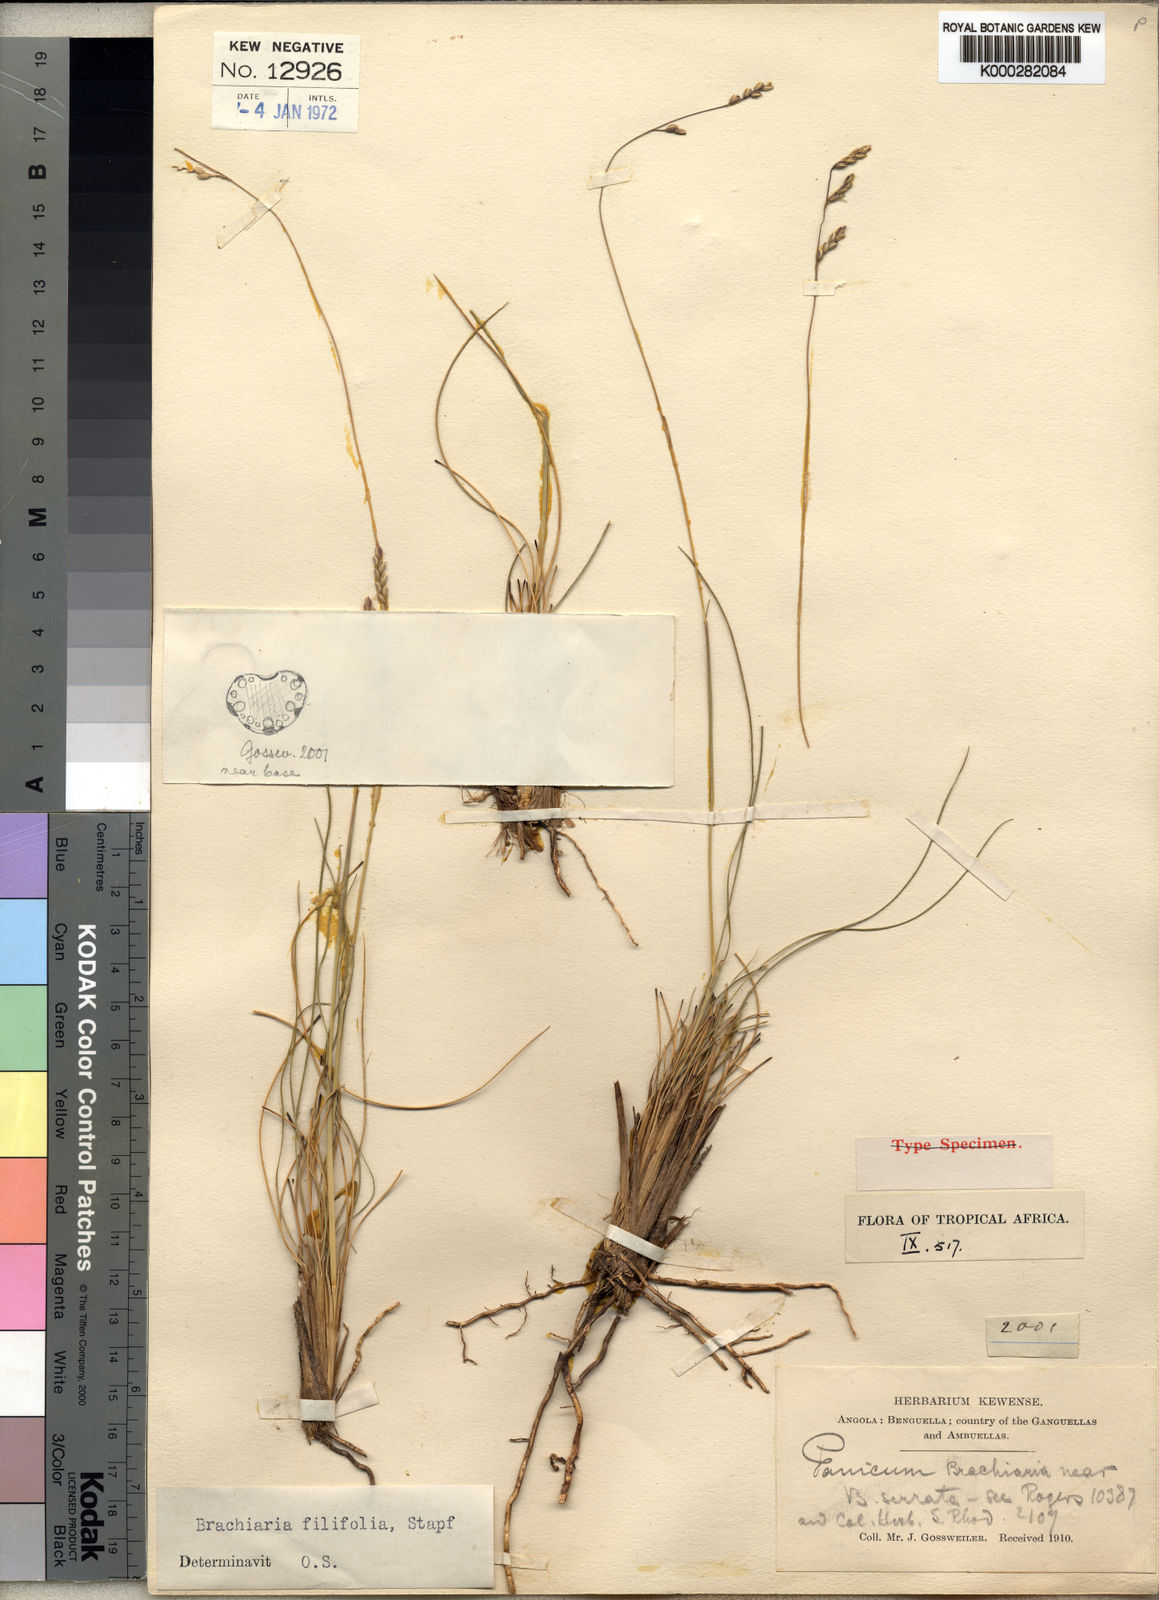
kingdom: Plantae
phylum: Tracheophyta
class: Liliopsida
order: Poales
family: Poaceae
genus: Urochloa
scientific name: Urochloa subulifolia
